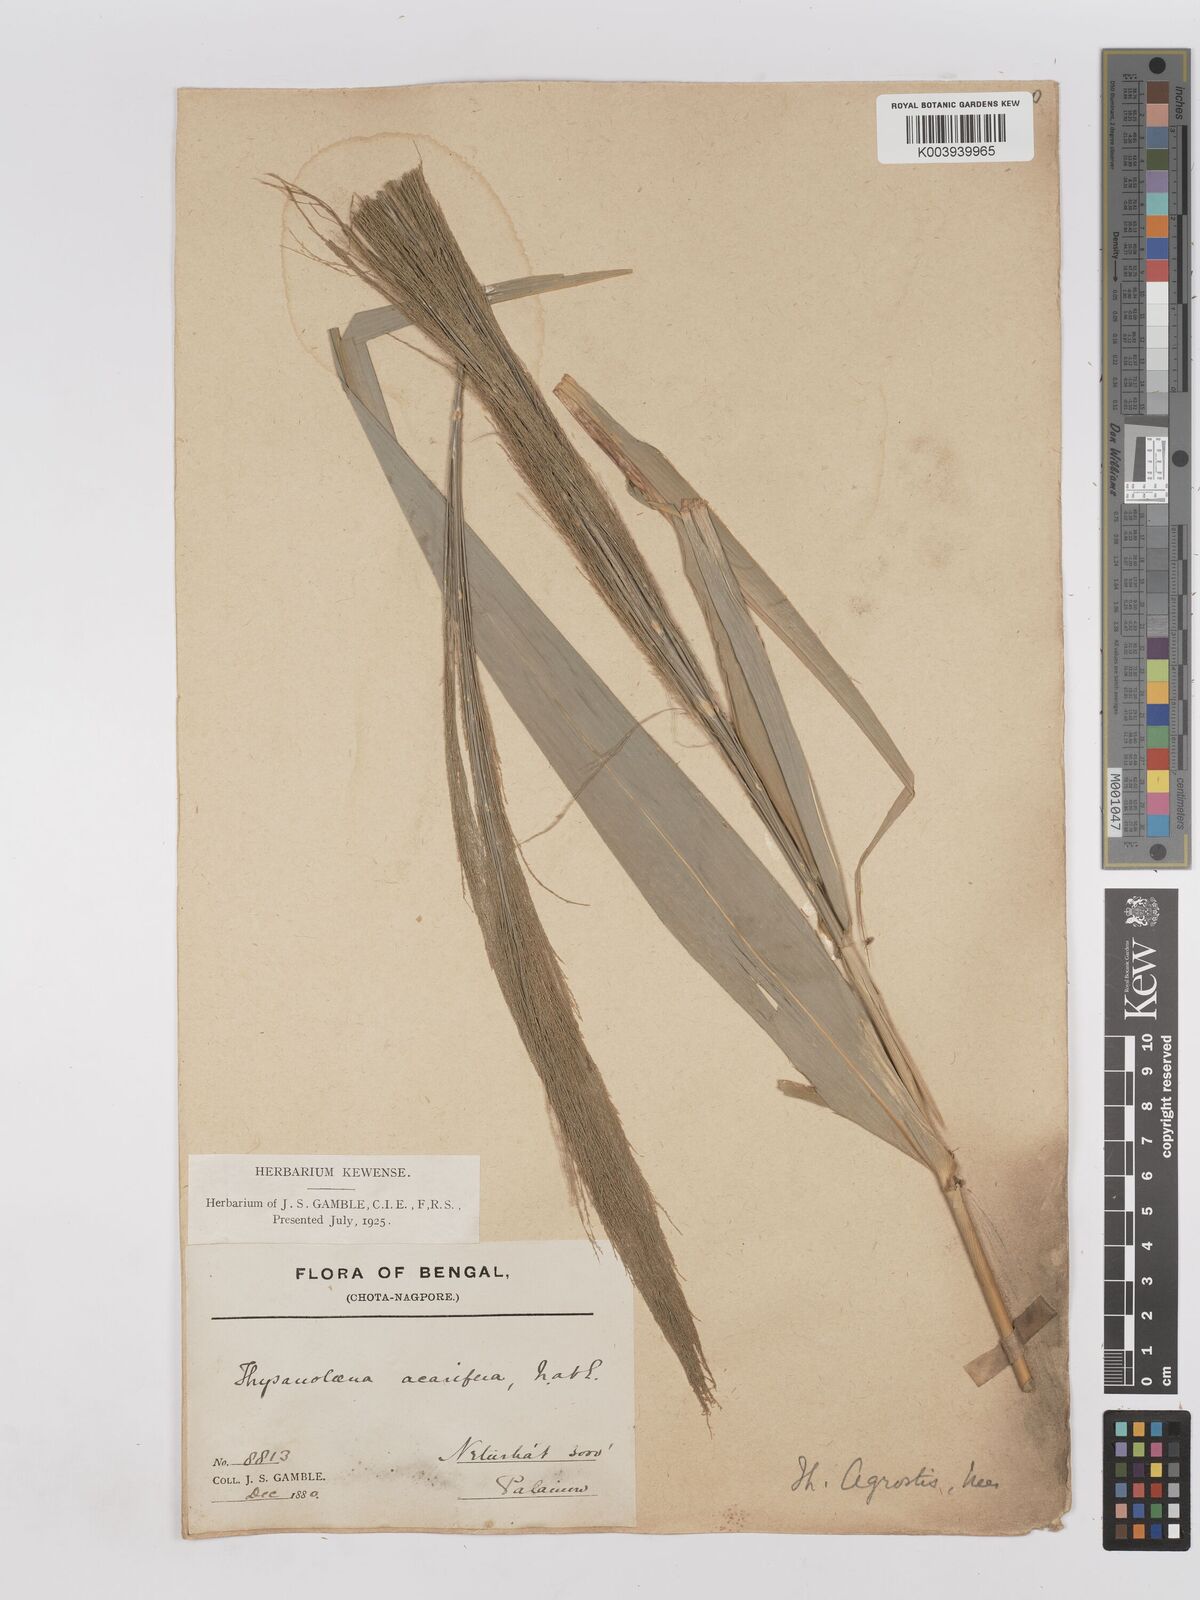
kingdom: Plantae
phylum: Tracheophyta
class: Liliopsida
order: Poales
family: Poaceae
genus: Thysanolaena
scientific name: Thysanolaena latifolia
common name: Tiger grass
